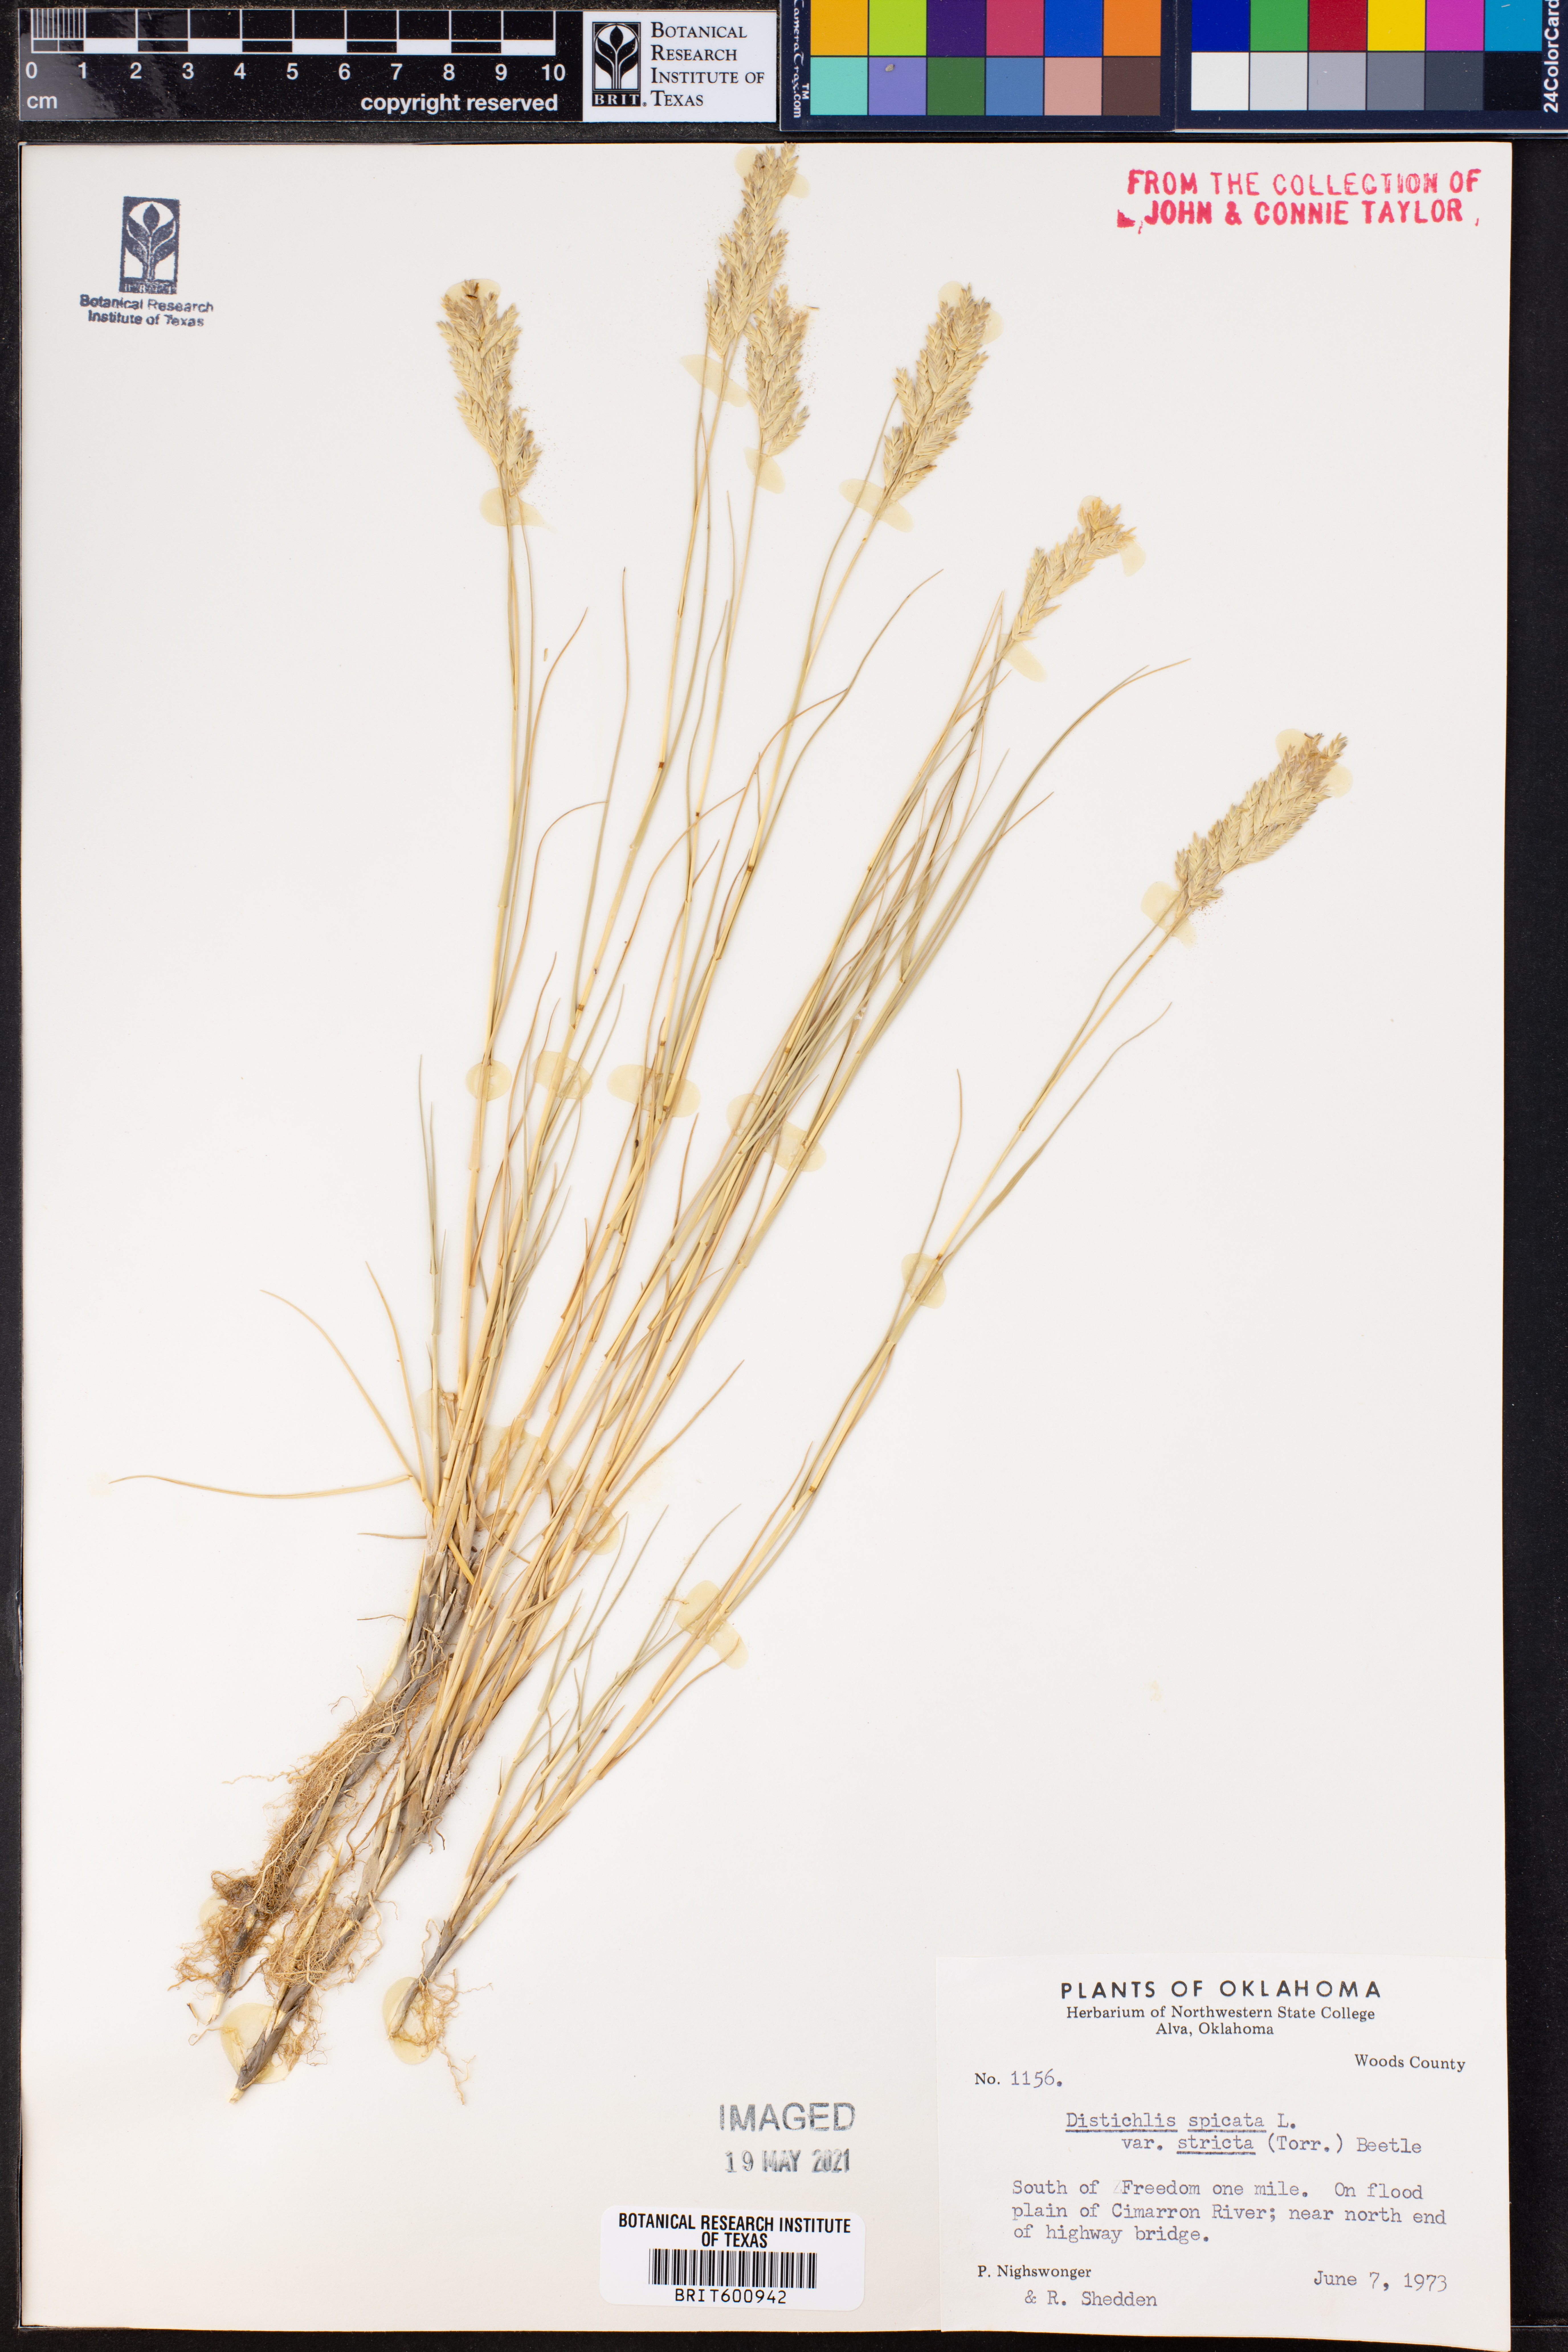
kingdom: Plantae
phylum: Tracheophyta
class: Liliopsida
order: Poales
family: Poaceae
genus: Distichlis
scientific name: Distichlis spicata
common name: Saltgrass
